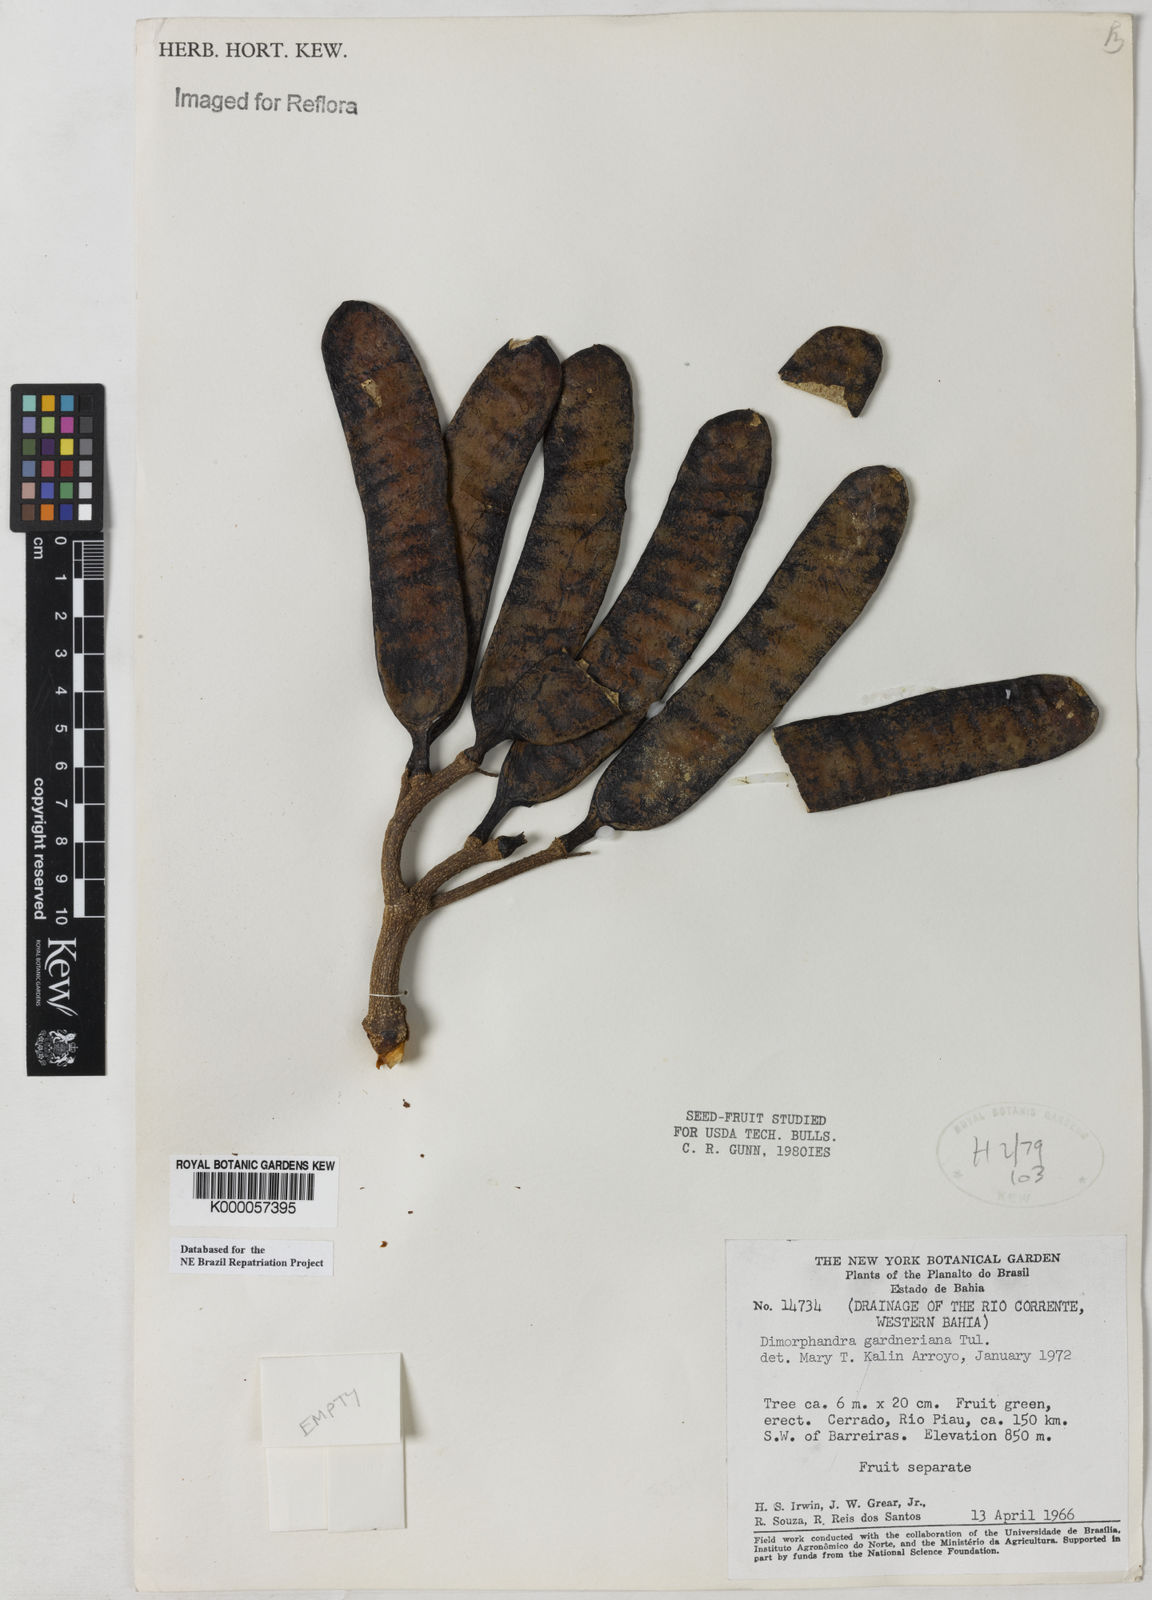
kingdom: Plantae
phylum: Tracheophyta
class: Magnoliopsida
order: Fabales
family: Fabaceae
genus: Dimorphandra
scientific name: Dimorphandra gardneriana
